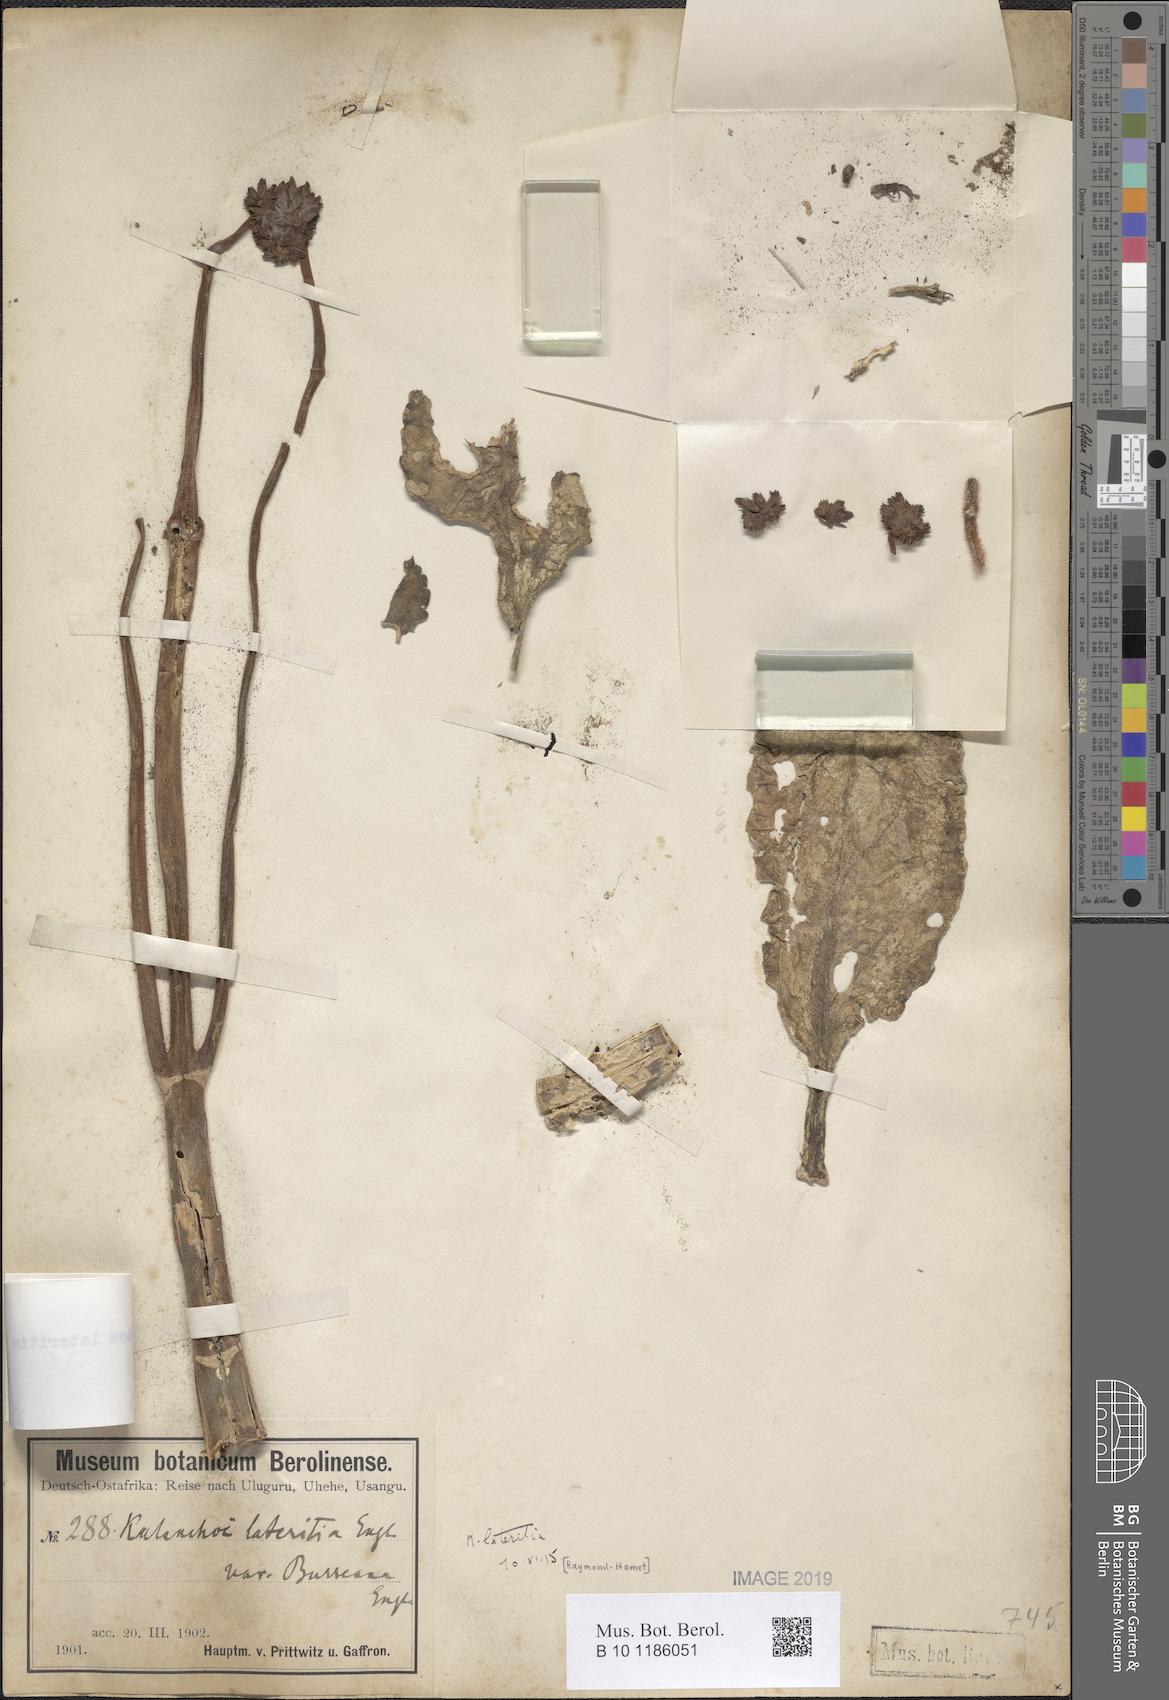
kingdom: Plantae
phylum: Tracheophyta
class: Magnoliopsida
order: Saxifragales
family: Crassulaceae
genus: Kalanchoe
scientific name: Kalanchoe lateritia
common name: Kalanchoe
